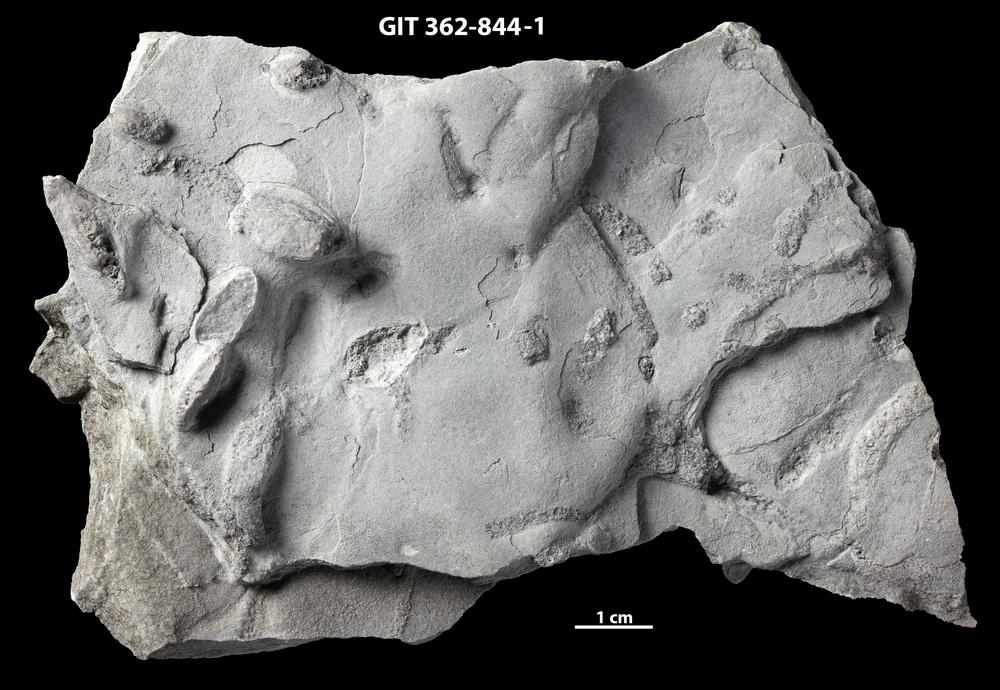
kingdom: Animalia
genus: Protovirgularia
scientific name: Protovirgularia
